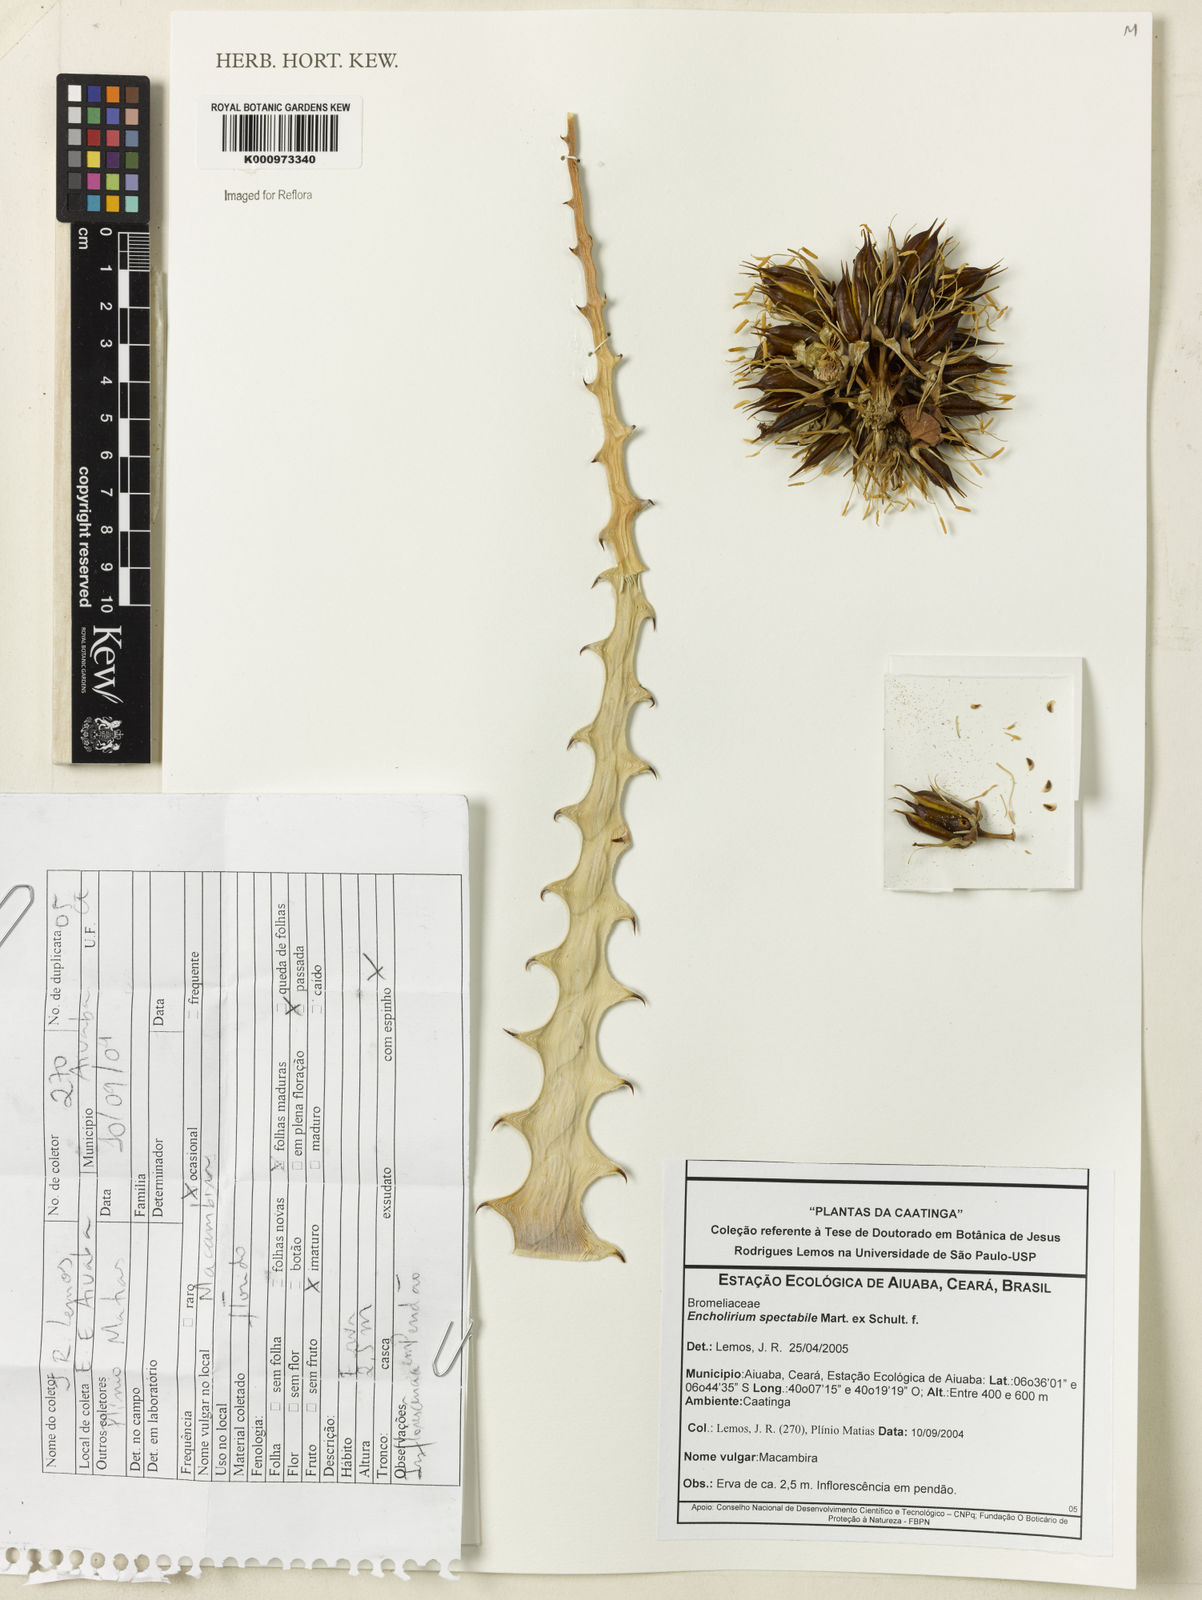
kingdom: Plantae
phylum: Tracheophyta
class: Liliopsida
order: Poales
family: Bromeliaceae
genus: Encholirium
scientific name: Encholirium spectabile
